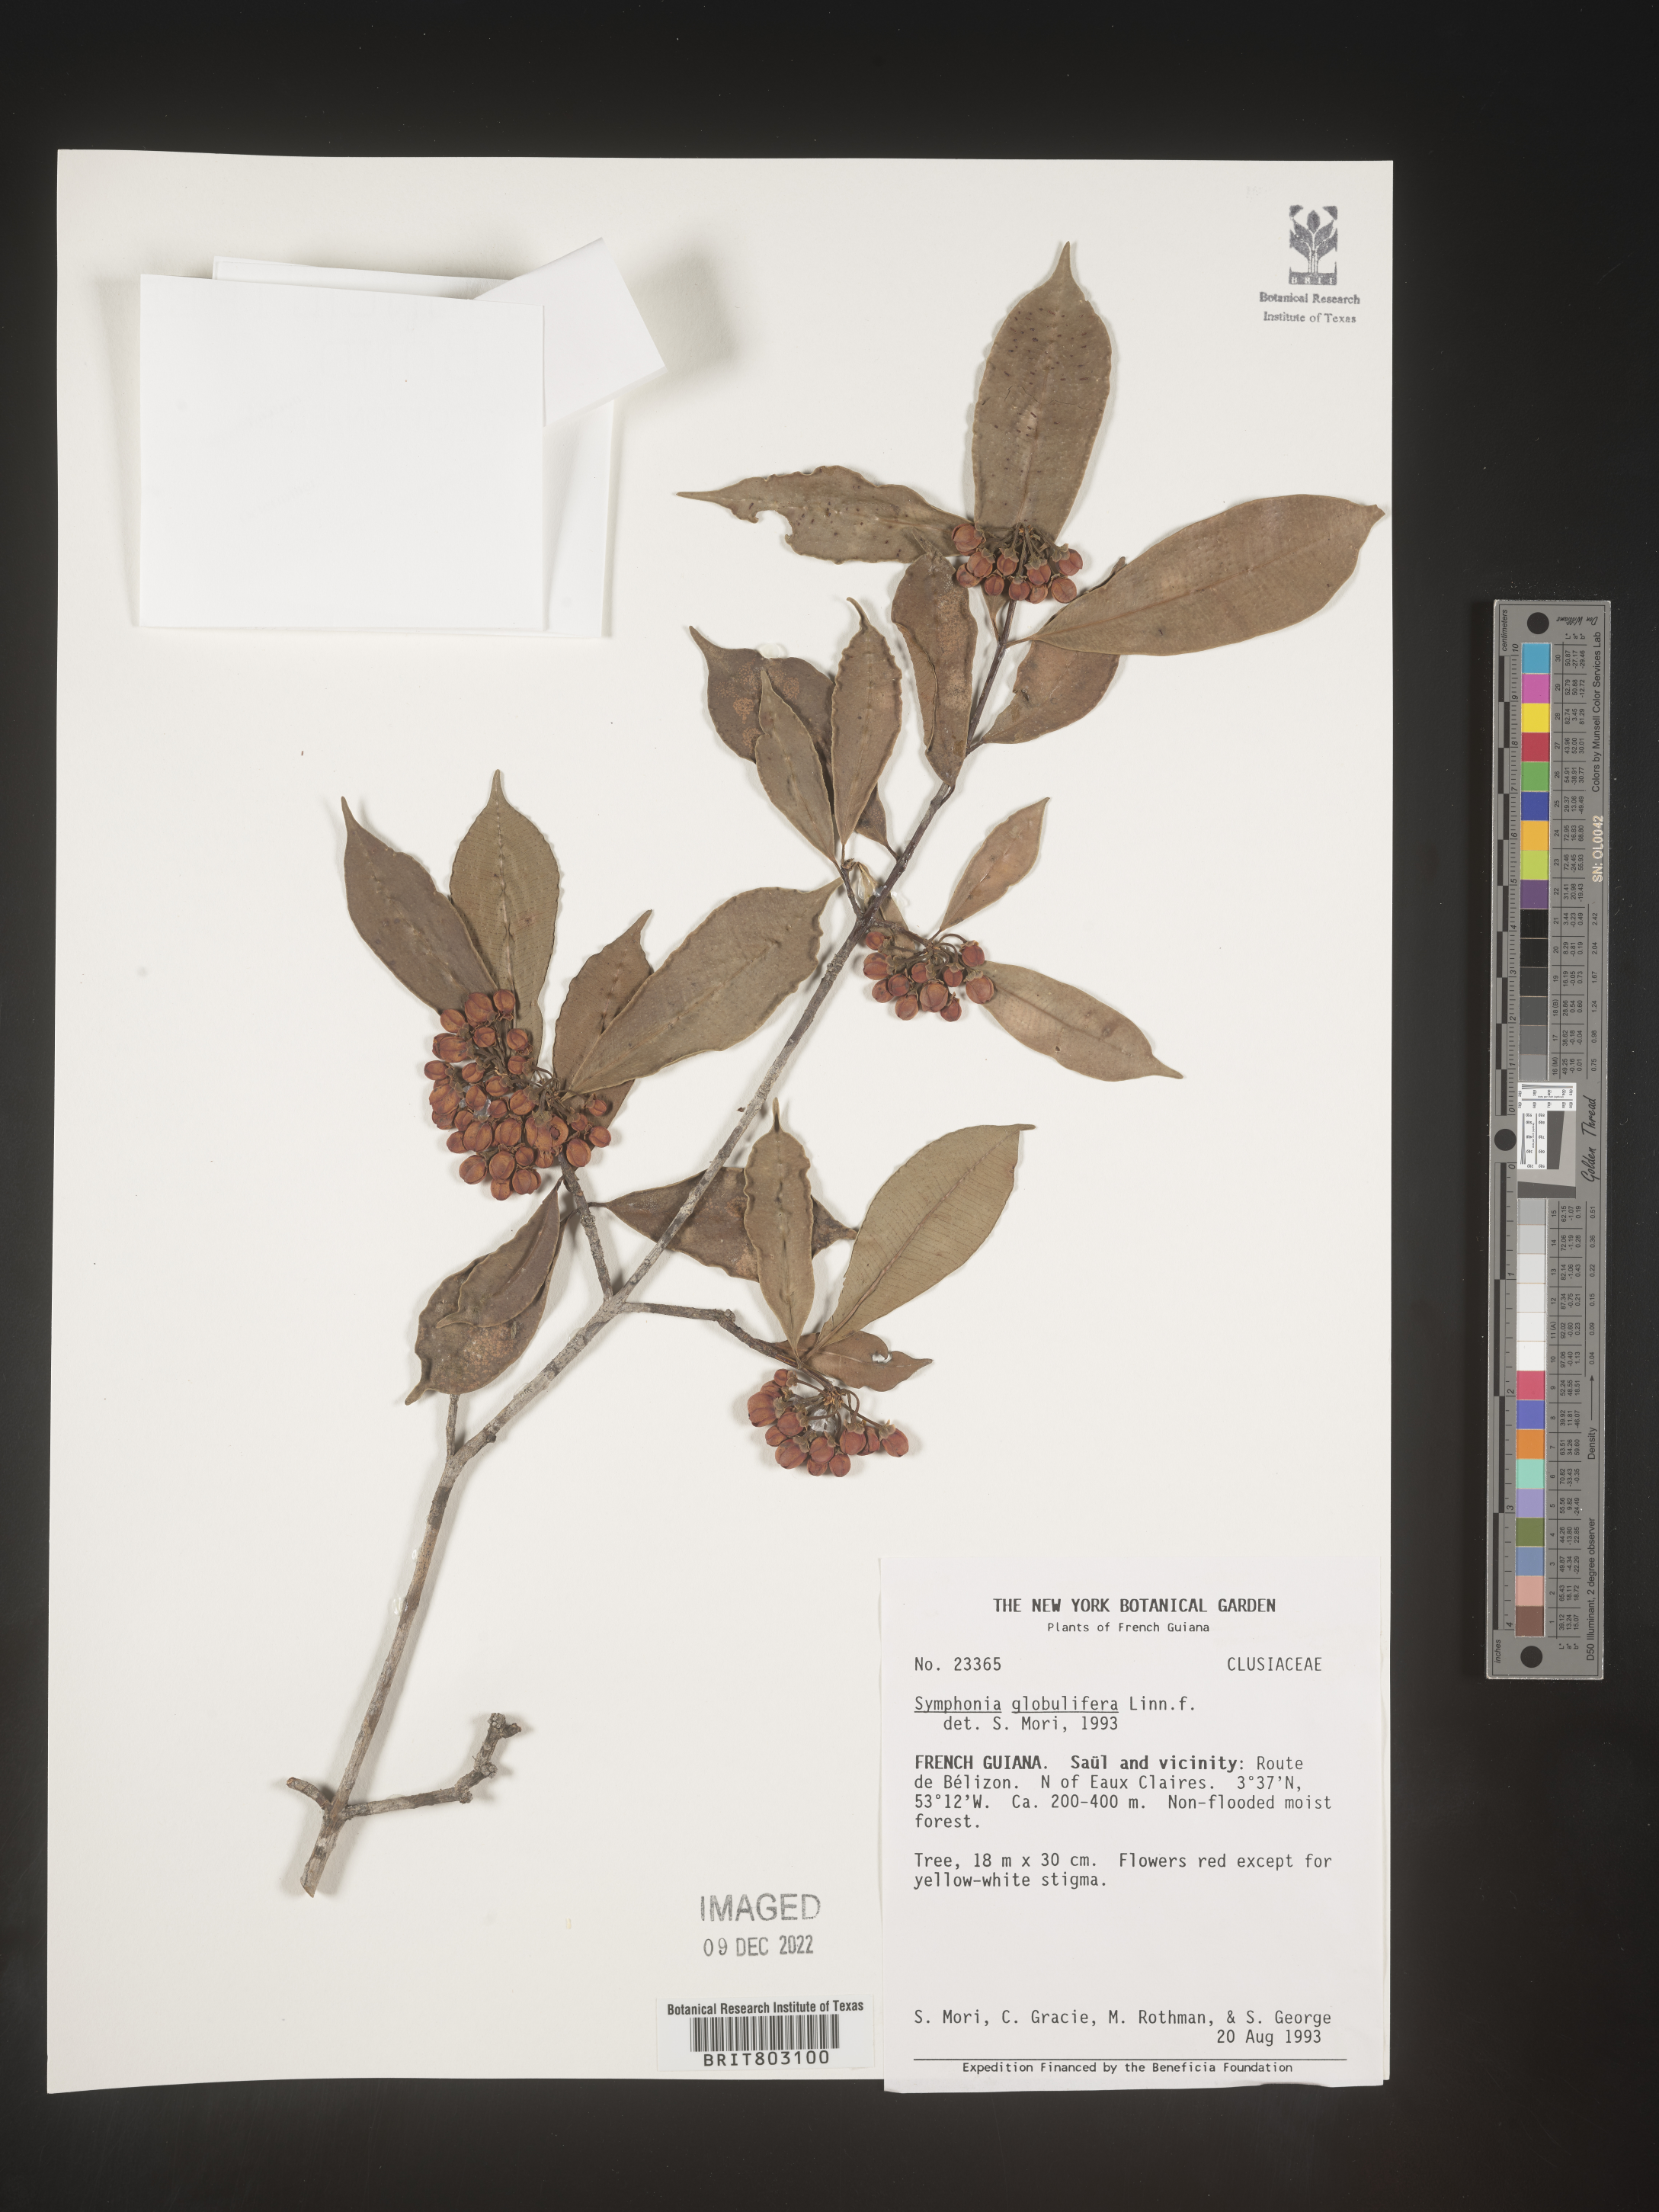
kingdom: Plantae
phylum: Tracheophyta
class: Magnoliopsida
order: Malpighiales
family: Clusiaceae
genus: Symphonia
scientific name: Symphonia
